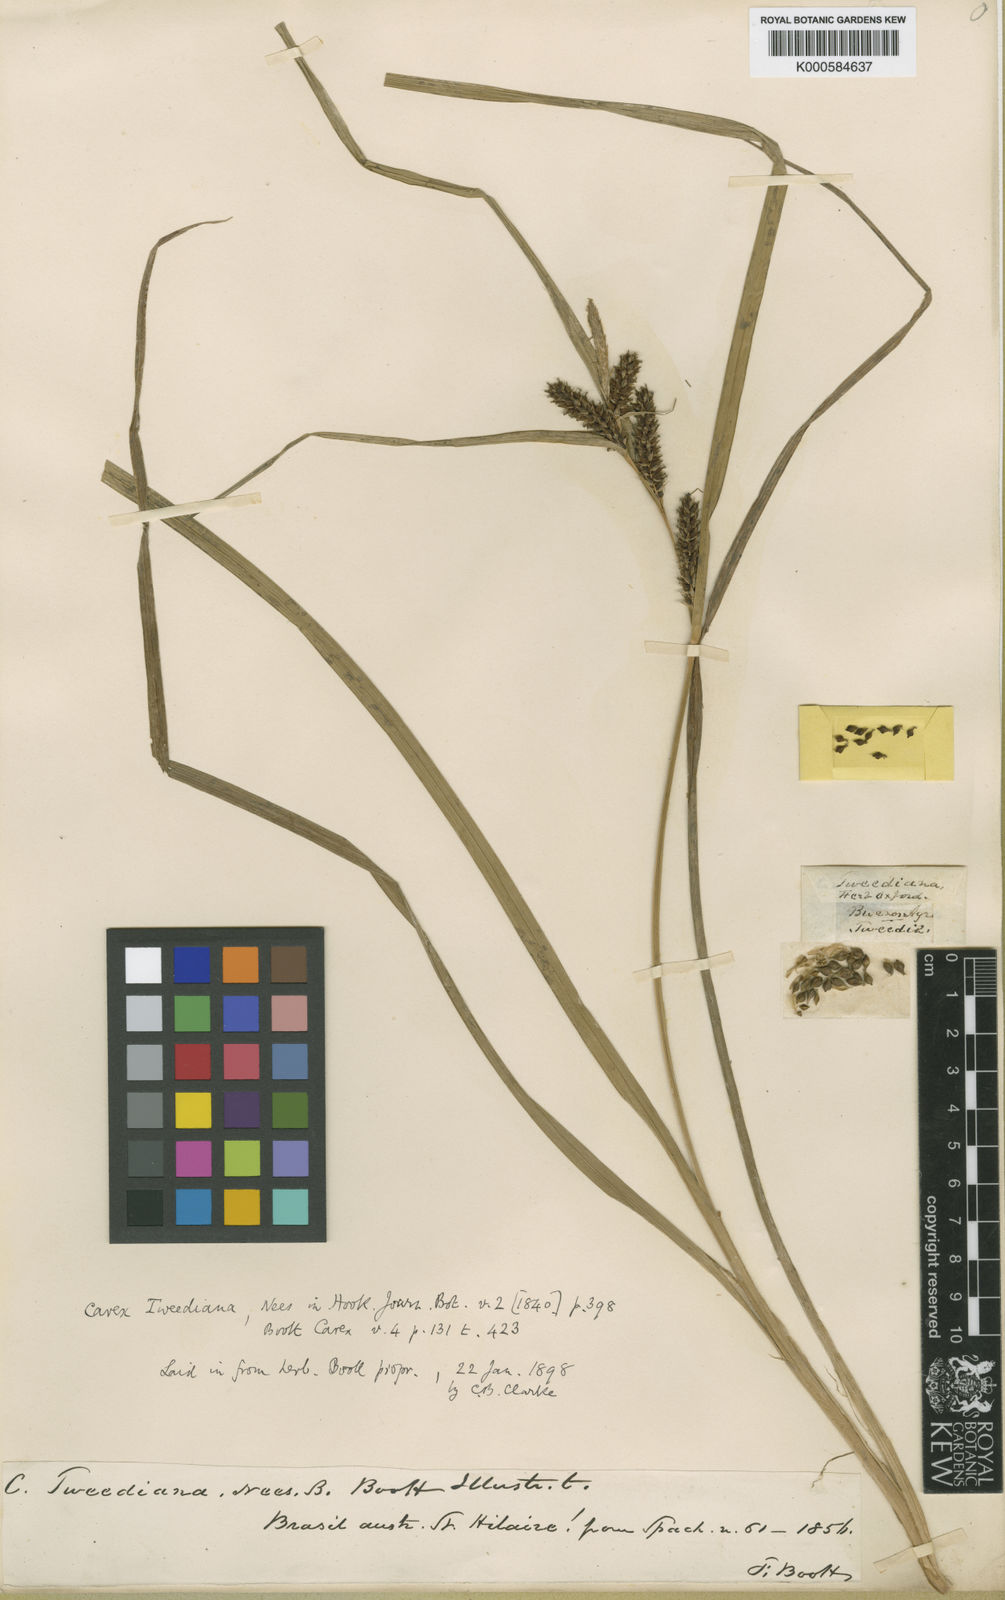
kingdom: Plantae
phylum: Tracheophyta
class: Liliopsida
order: Poales
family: Cyperaceae
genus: Carex
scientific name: Carex
